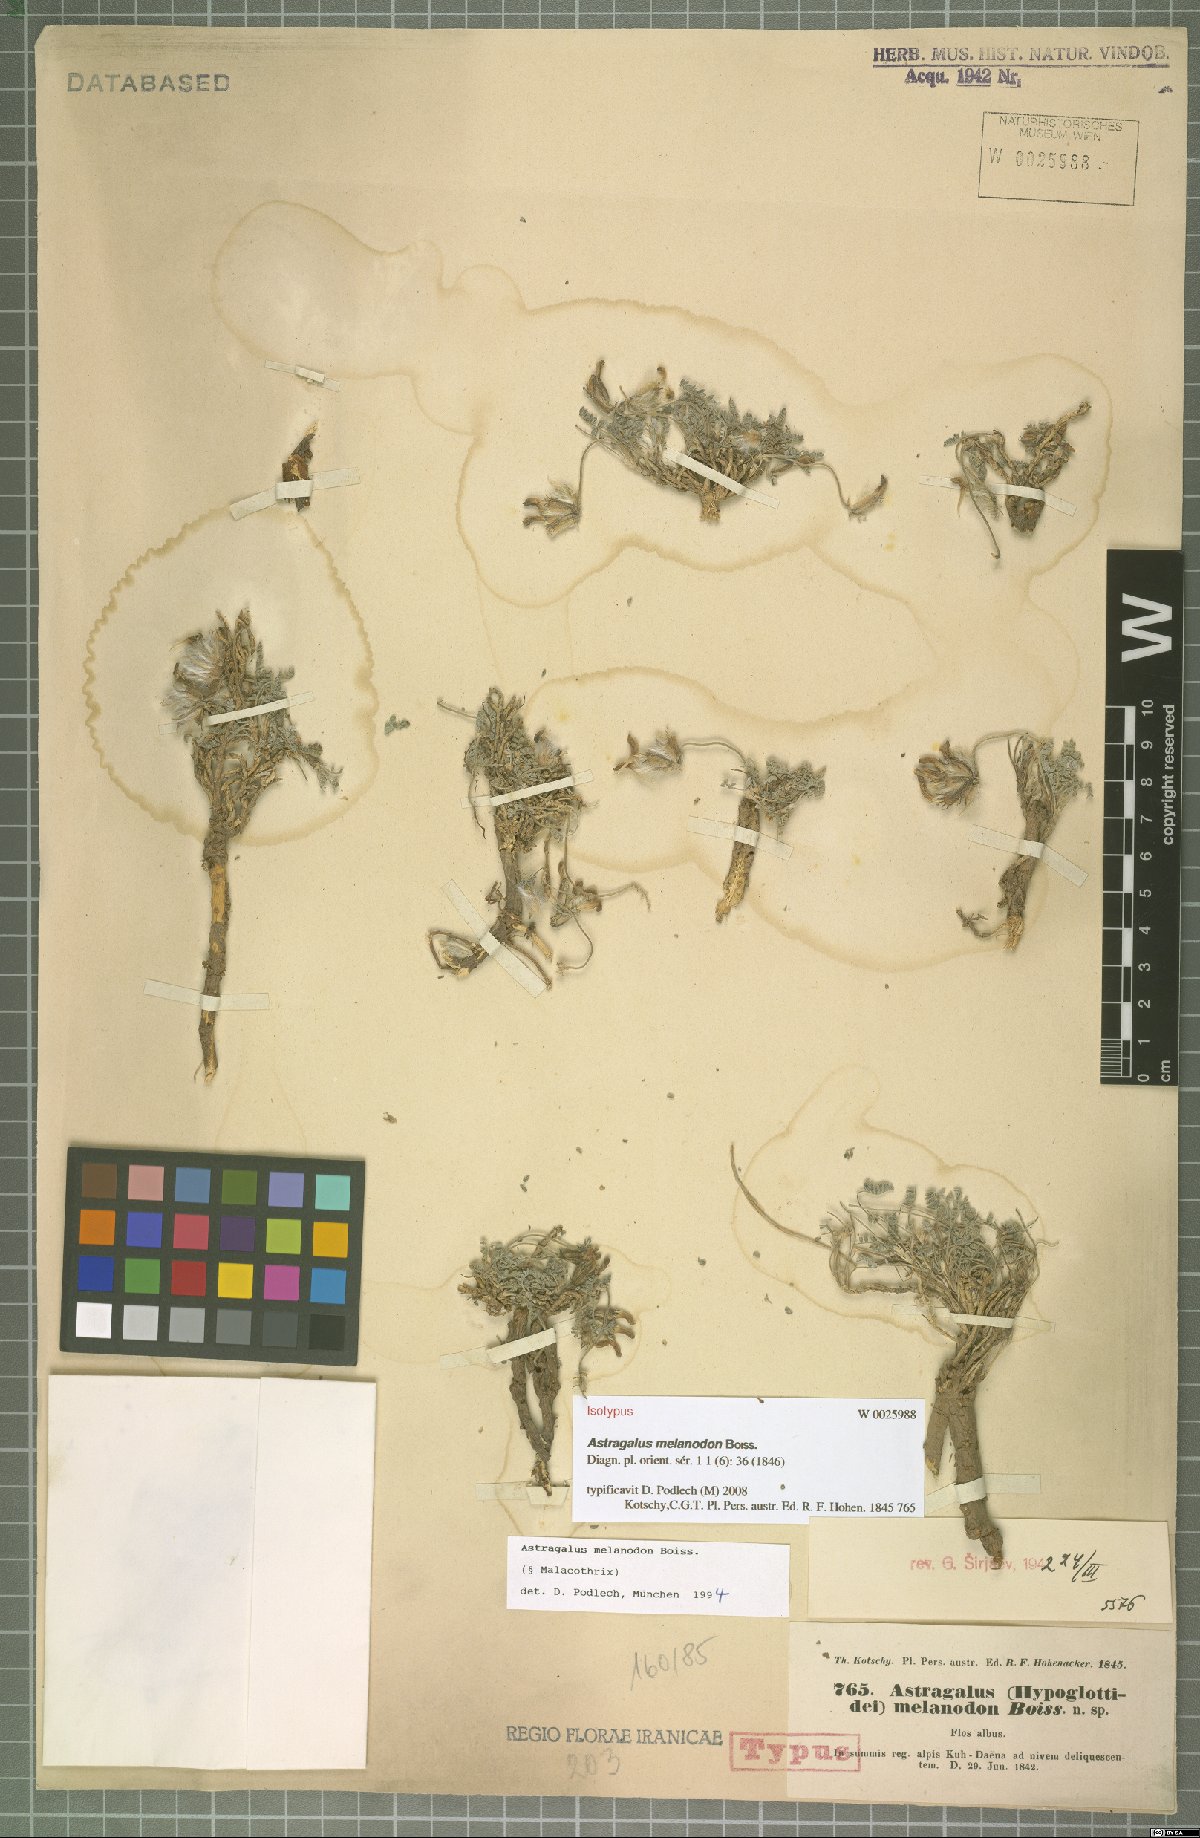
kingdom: Plantae
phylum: Tracheophyta
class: Magnoliopsida
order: Fabales
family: Fabaceae
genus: Astragalus
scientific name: Astragalus melanodon
